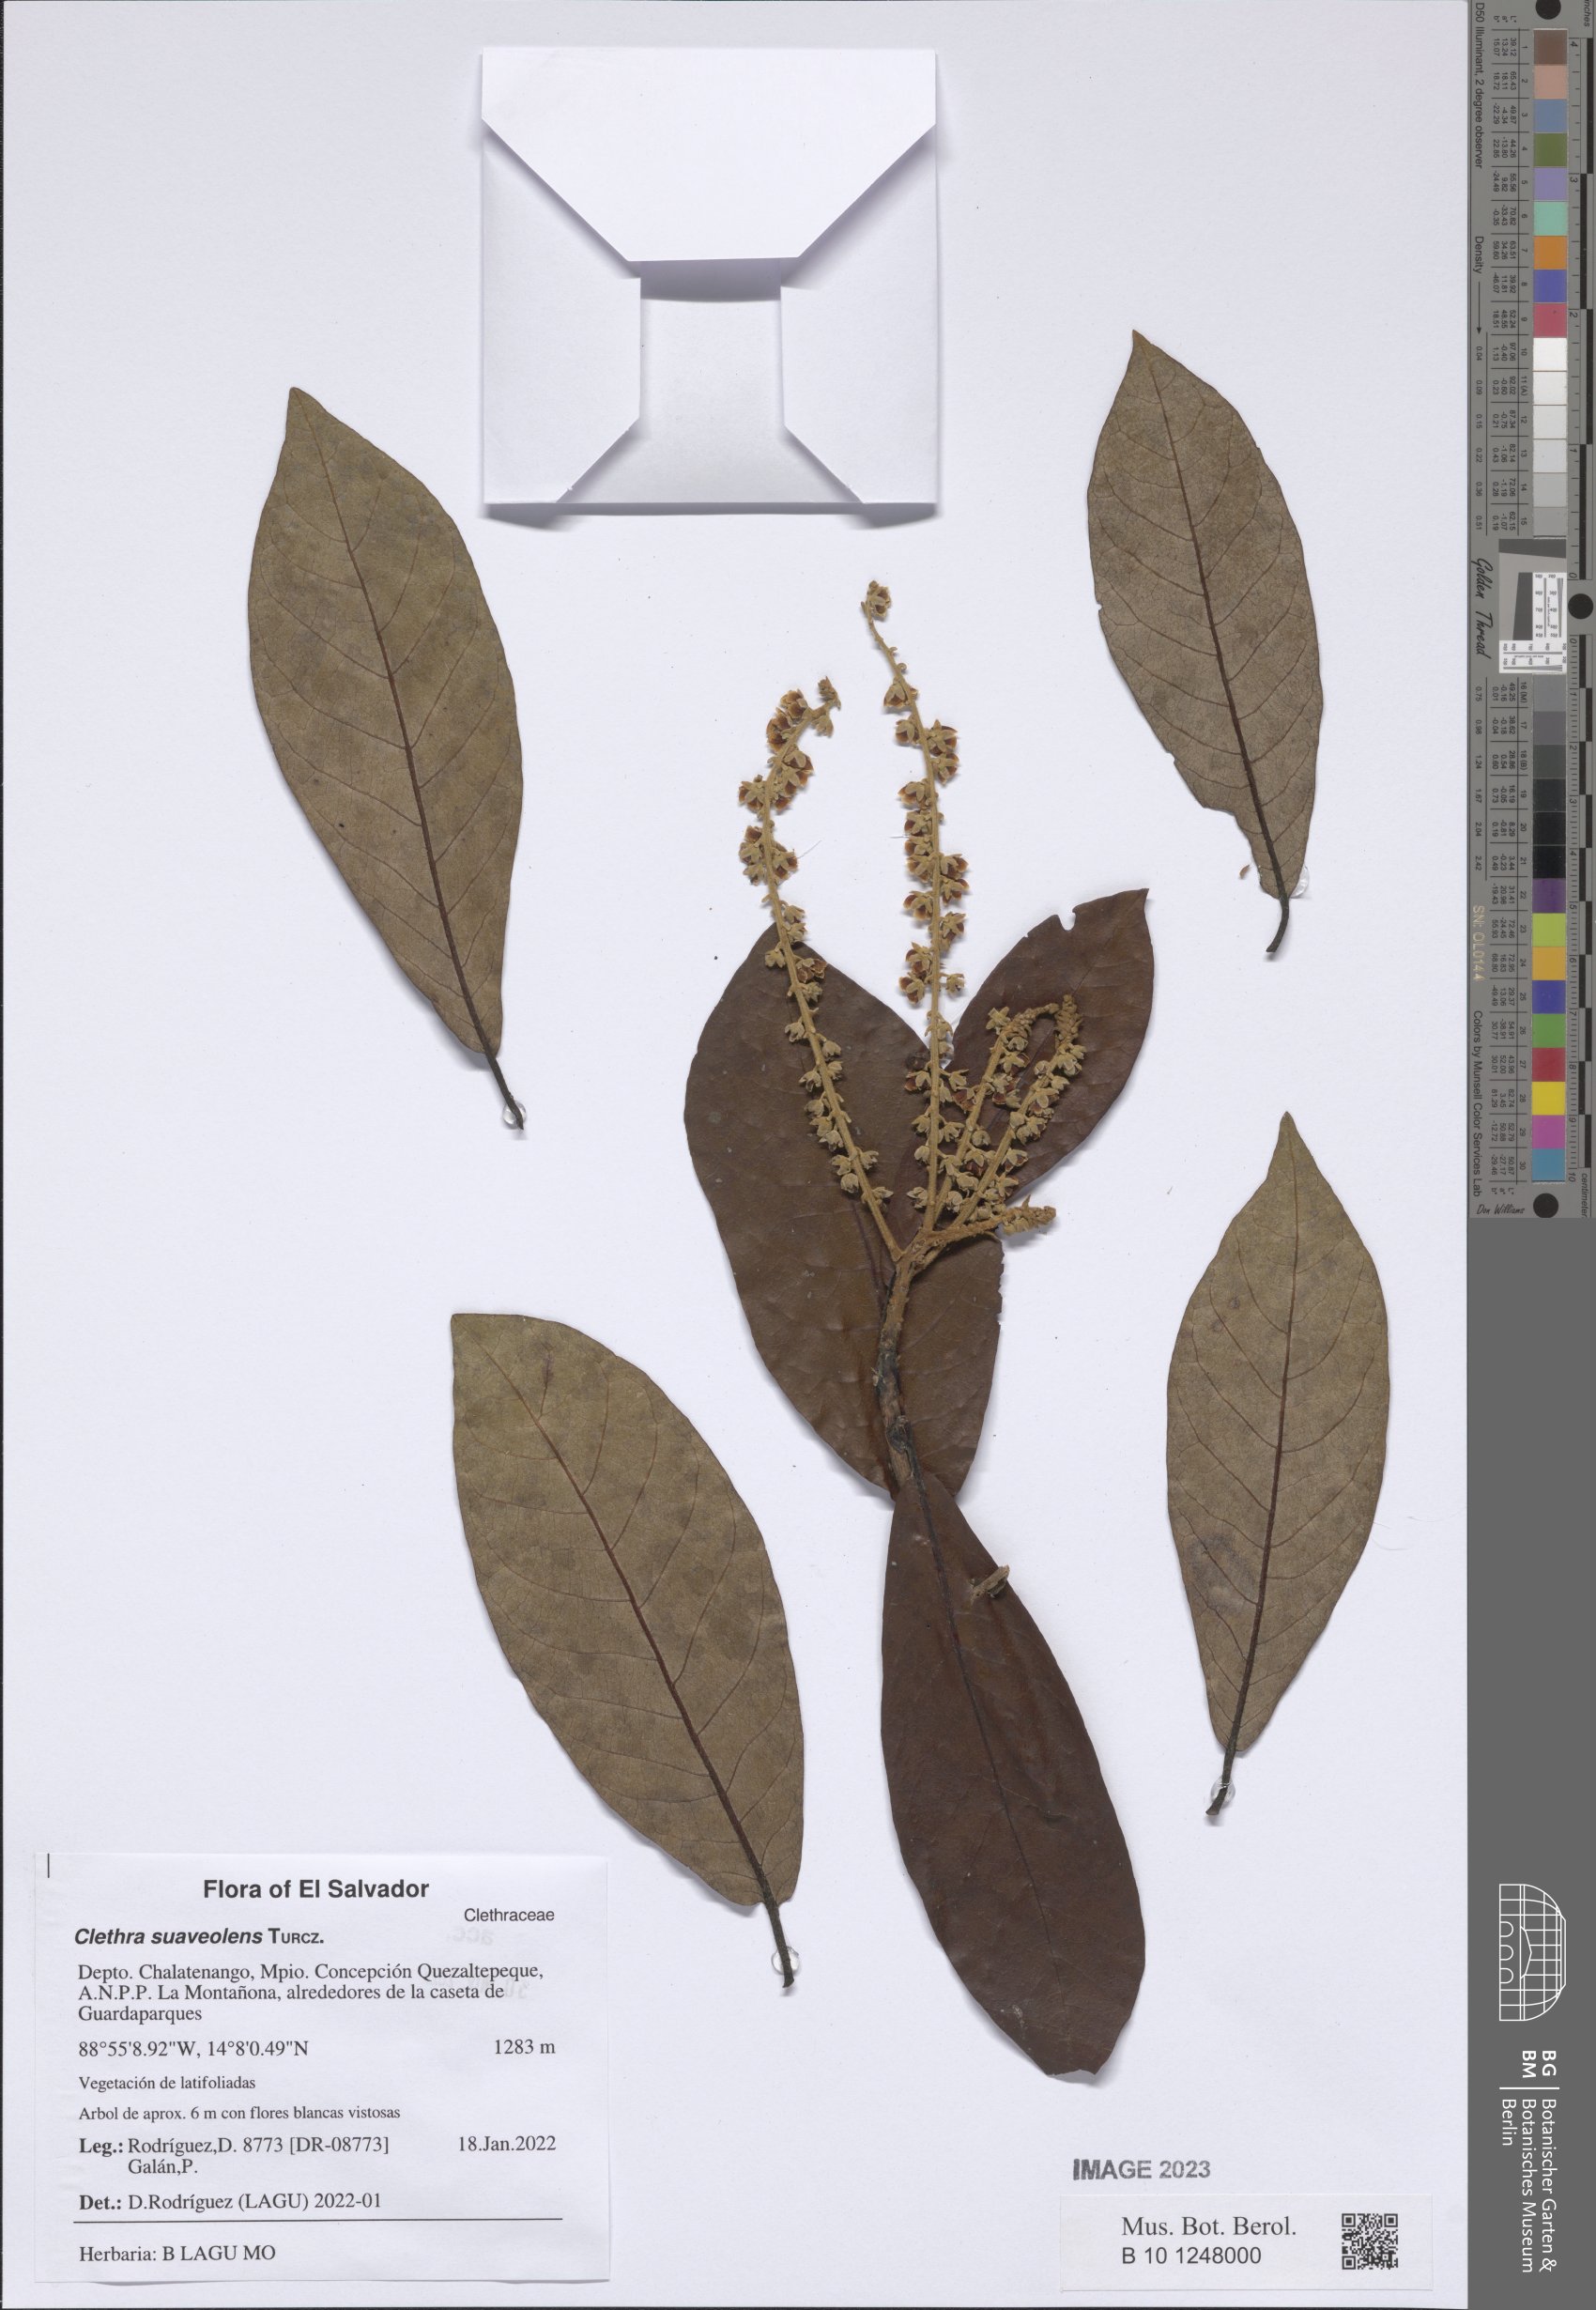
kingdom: Plantae
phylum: Tracheophyta
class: Magnoliopsida
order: Ericales
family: Clethraceae
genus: Clethra
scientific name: Clethra suaveolens
